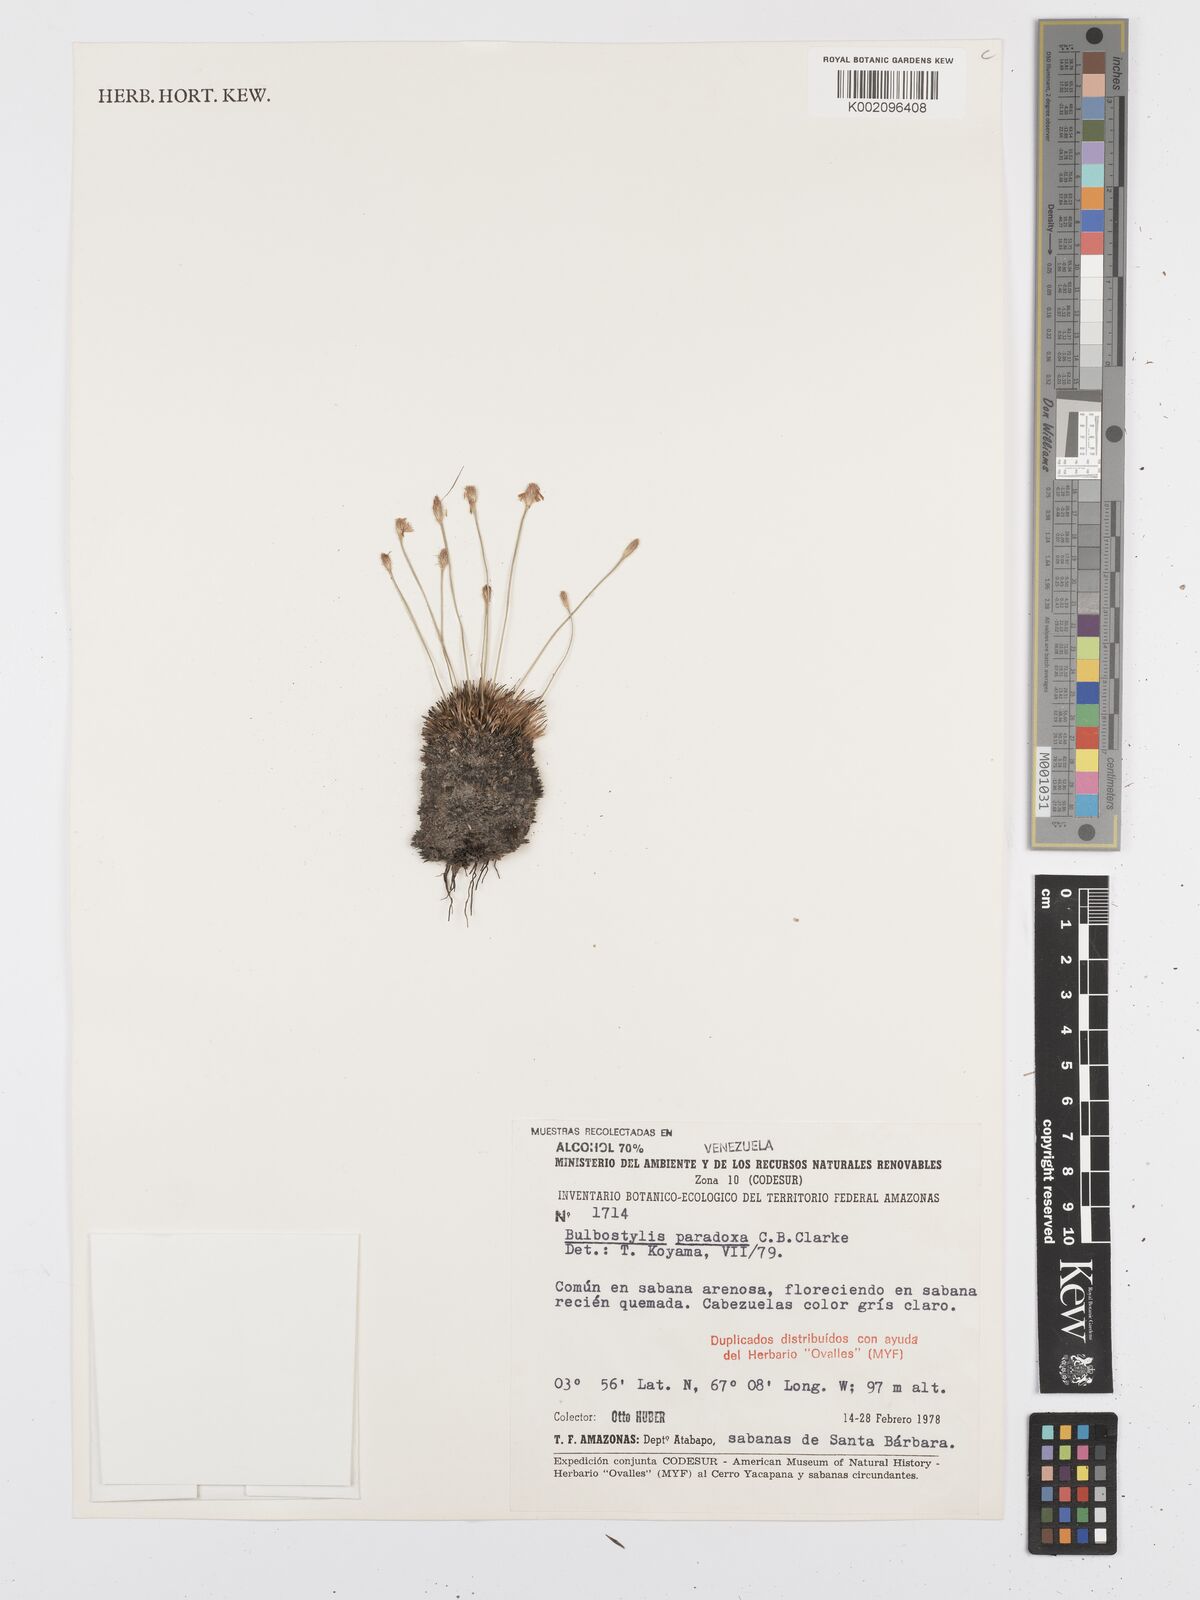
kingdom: Plantae
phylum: Tracheophyta
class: Liliopsida
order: Poales
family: Cyperaceae
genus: Bulbostylis
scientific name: Bulbostylis
